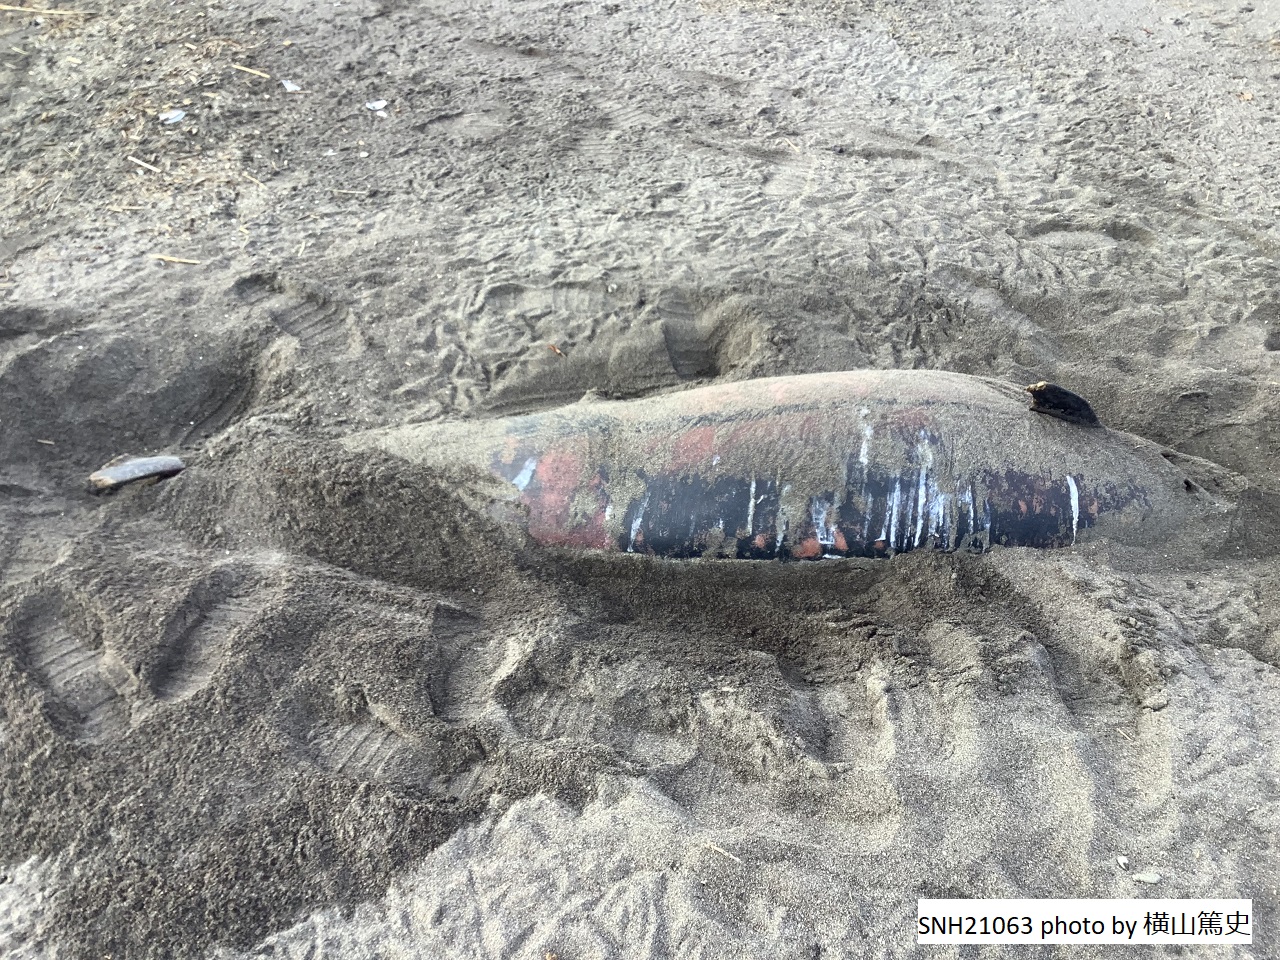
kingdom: Animalia
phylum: Chordata
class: Mammalia
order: Cetacea
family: Delphinidae
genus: Stenella
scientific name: Stenella coeruleoalba
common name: Striped dolphin
